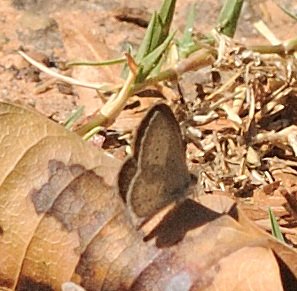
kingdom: Animalia
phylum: Arthropoda
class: Insecta
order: Lepidoptera
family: Lycaenidae
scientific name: Lycaenidae
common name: Gossamerwings
